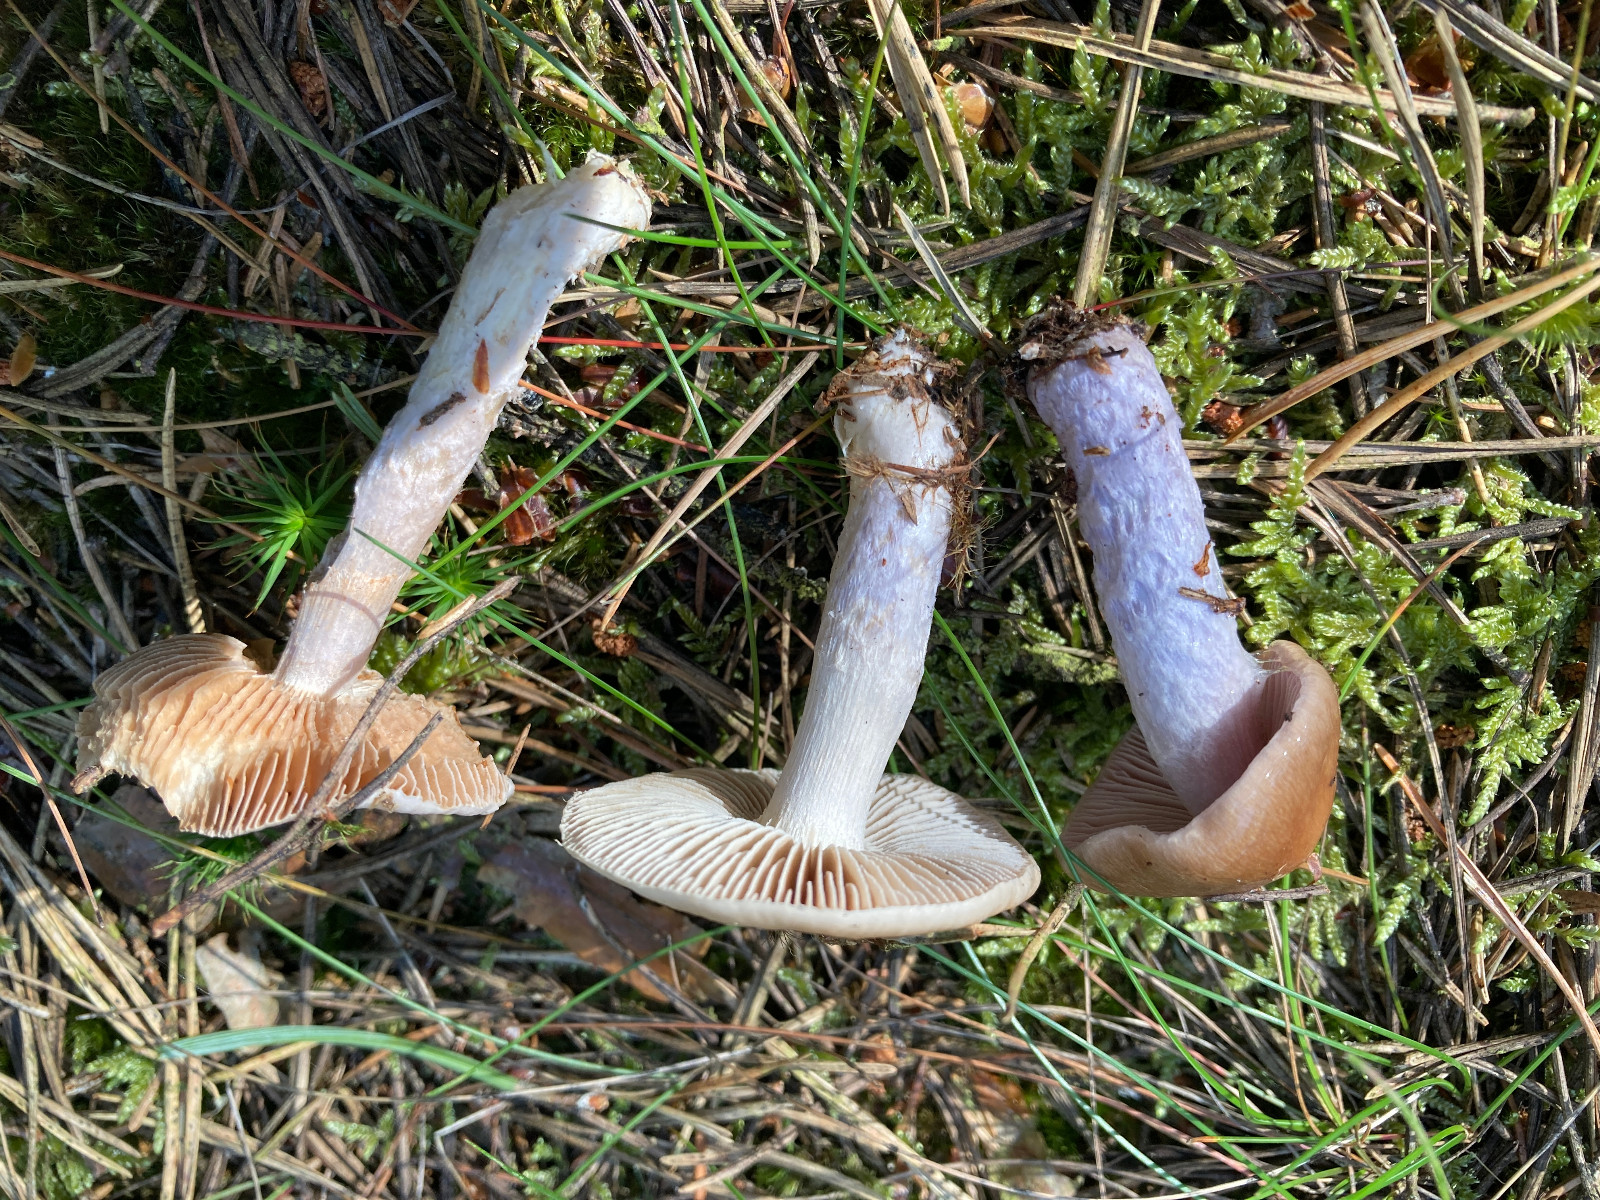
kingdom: Fungi
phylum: Basidiomycota
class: Agaricomycetes
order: Agaricales
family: Cortinariaceae
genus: Cortinarius
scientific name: Cortinarius collinitus
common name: spættet slørhat
